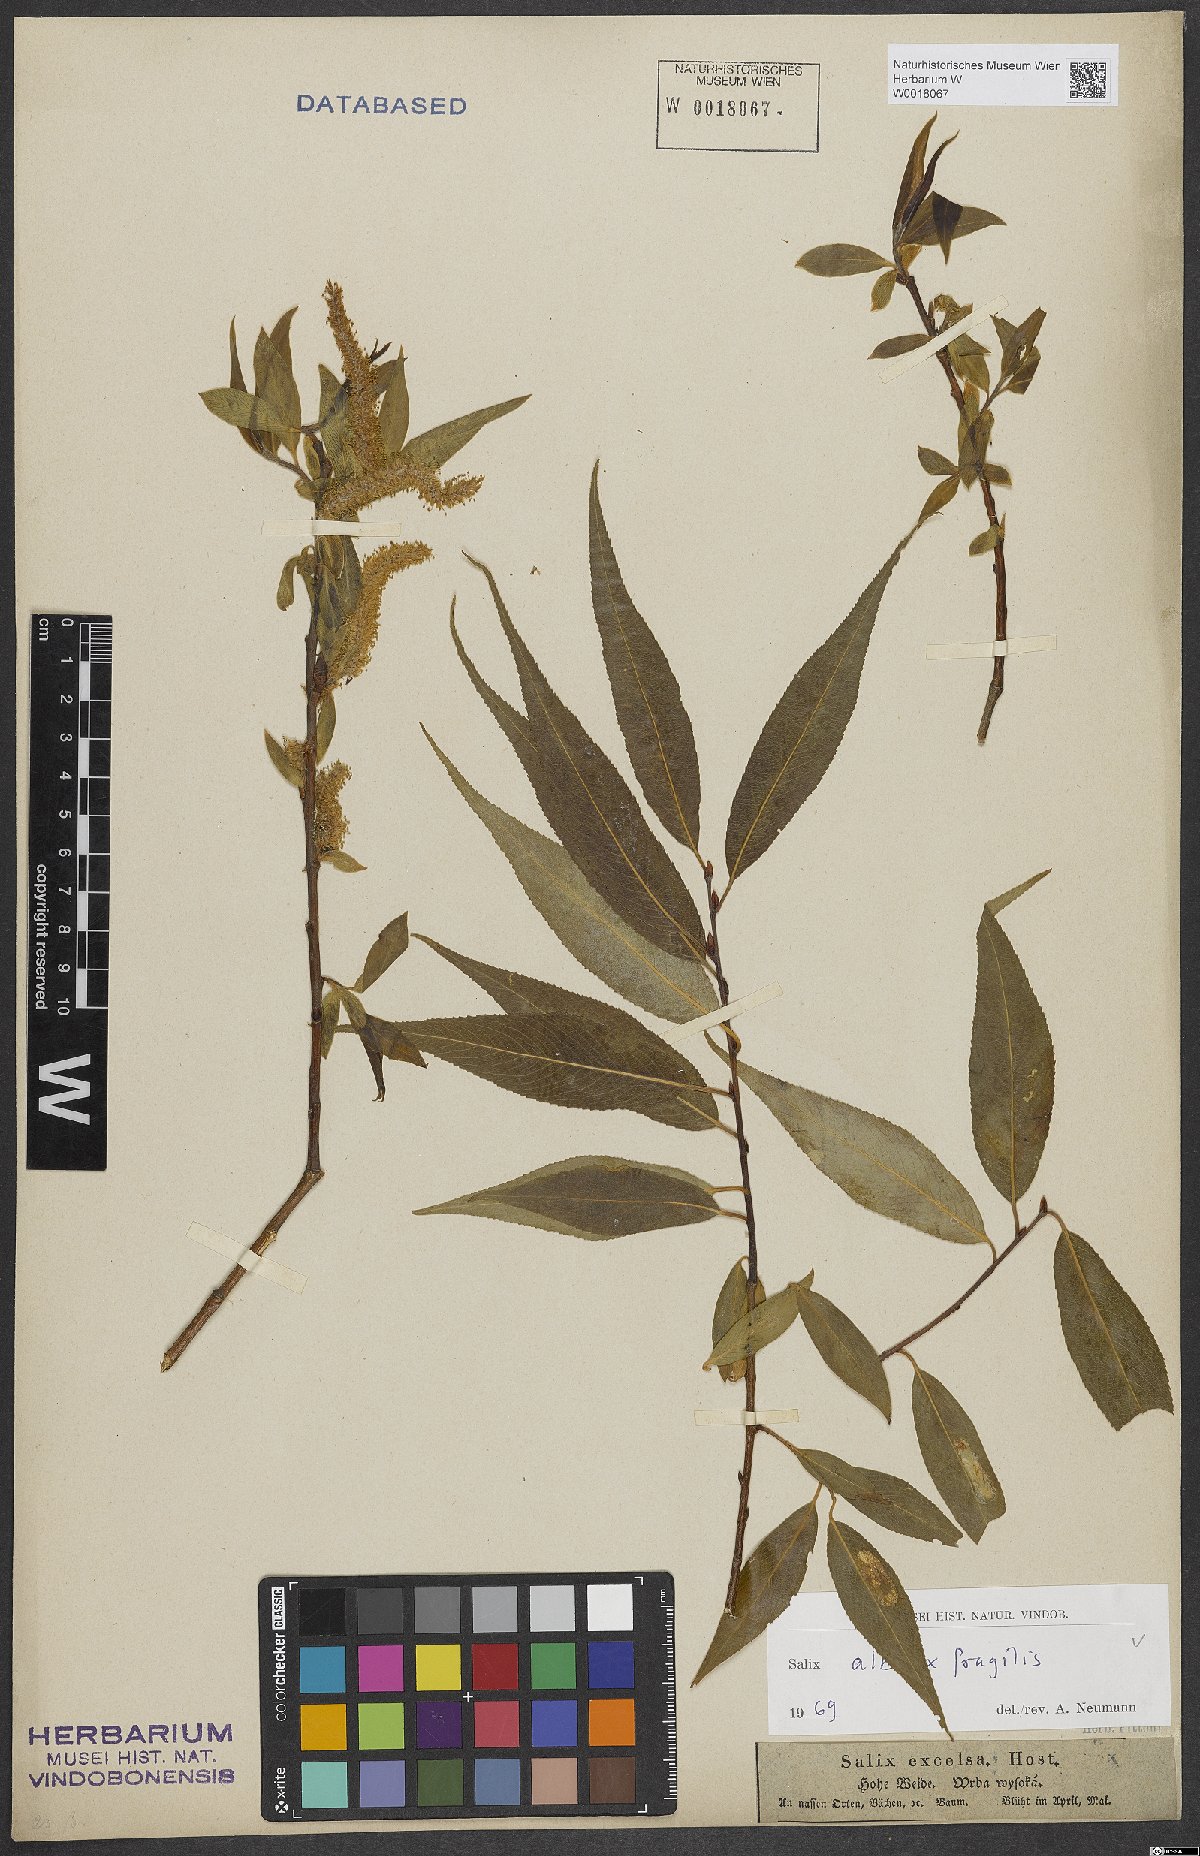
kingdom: Plantae
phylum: Tracheophyta
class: Magnoliopsida
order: Malpighiales
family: Salicaceae
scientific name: Salicaceae
